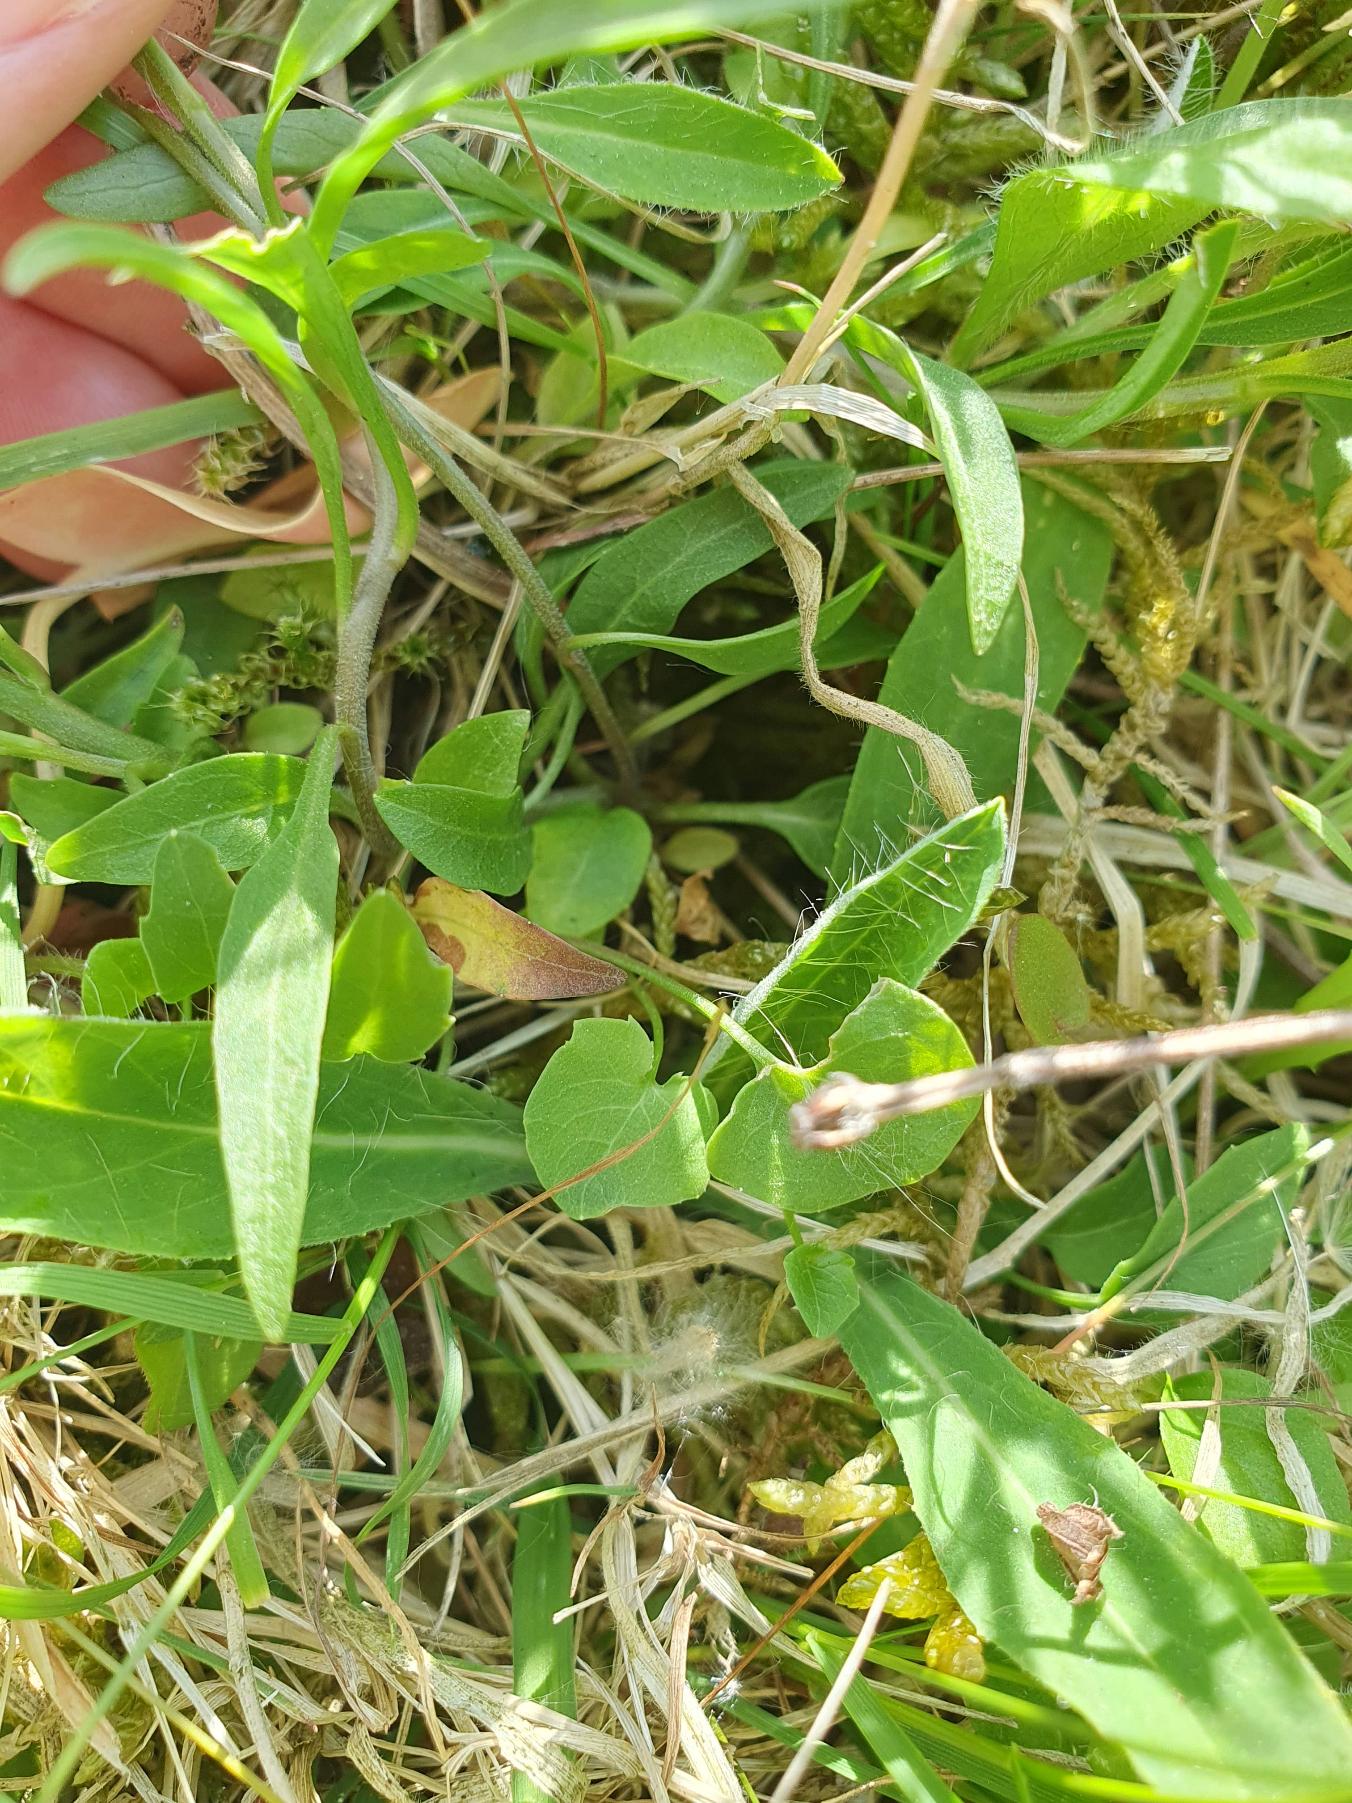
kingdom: Plantae
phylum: Tracheophyta
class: Magnoliopsida
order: Asterales
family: Campanulaceae
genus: Campanula
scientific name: Campanula rotundifolia
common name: Liden klokke
